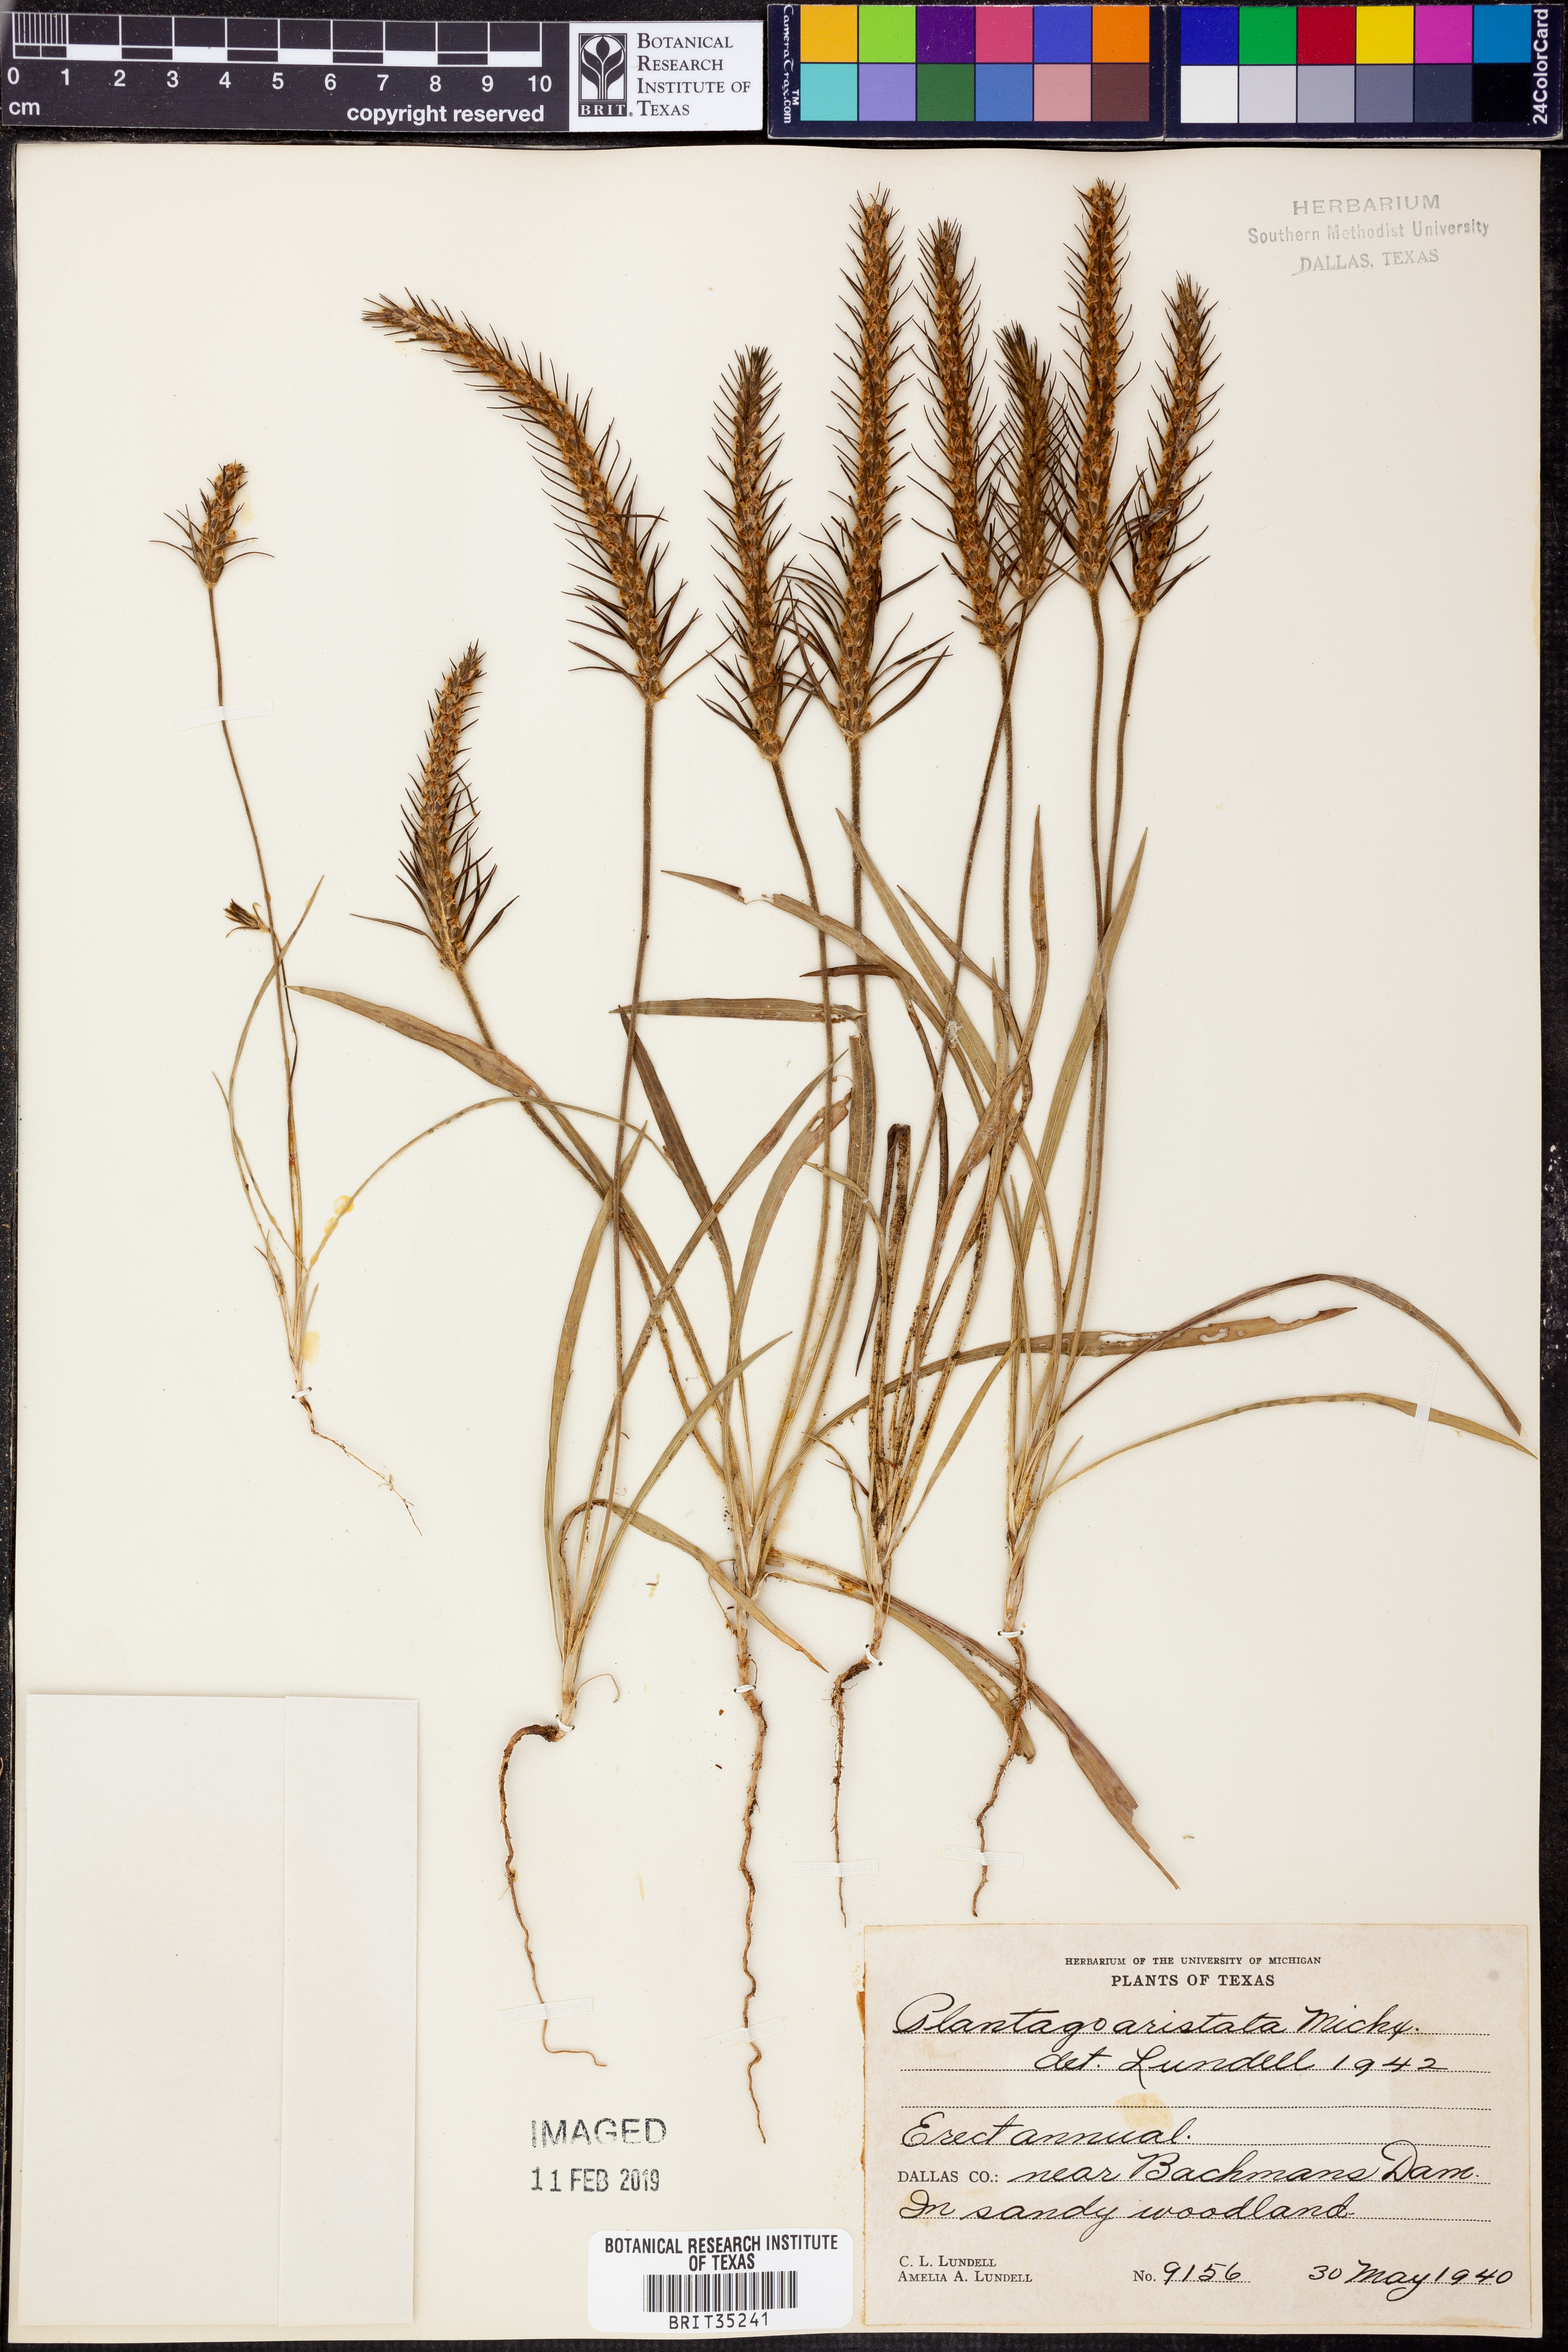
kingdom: Plantae
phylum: Tracheophyta
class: Magnoliopsida
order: Lamiales
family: Plantaginaceae
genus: Plantago
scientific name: Plantago aristata
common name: Bracted plantain
